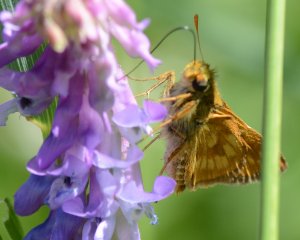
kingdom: Animalia
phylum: Arthropoda
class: Insecta
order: Lepidoptera
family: Hesperiidae
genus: Polites
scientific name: Polites
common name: Long Dash Skipper
